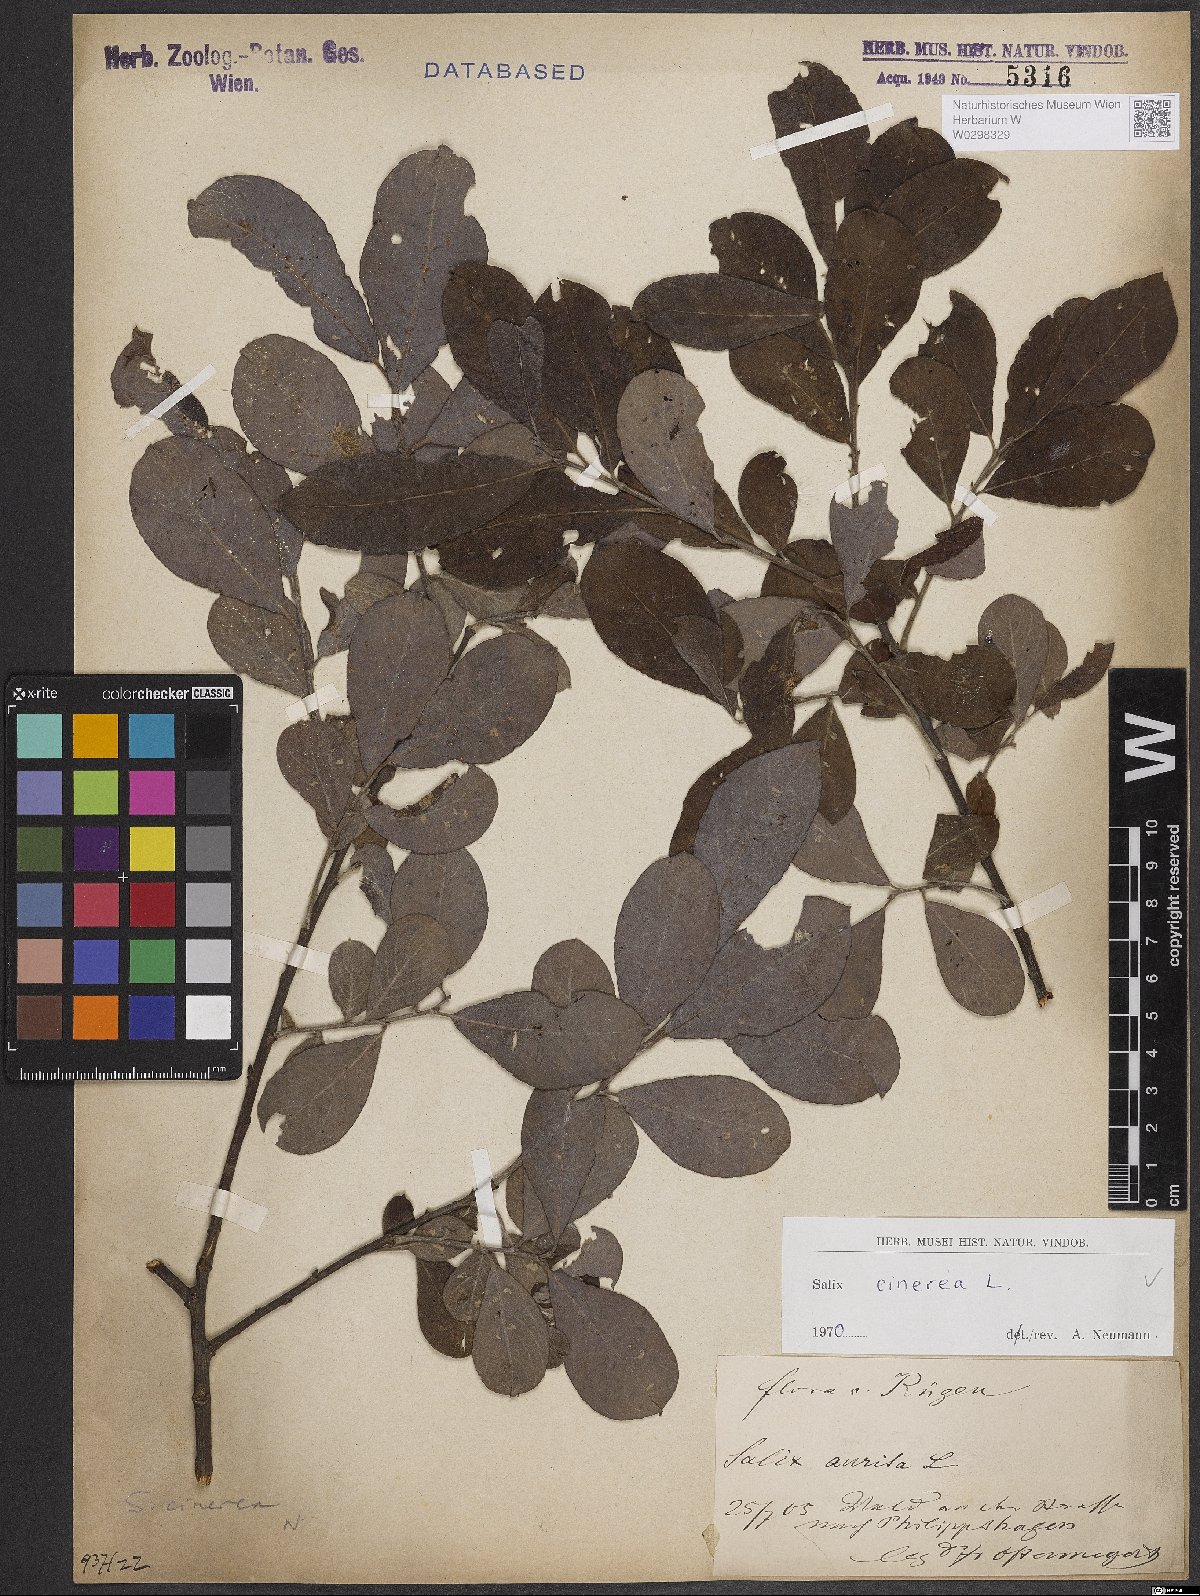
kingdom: Plantae
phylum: Tracheophyta
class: Magnoliopsida
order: Malpighiales
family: Salicaceae
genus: Salix
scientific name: Salix cinerea
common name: Common sallow
